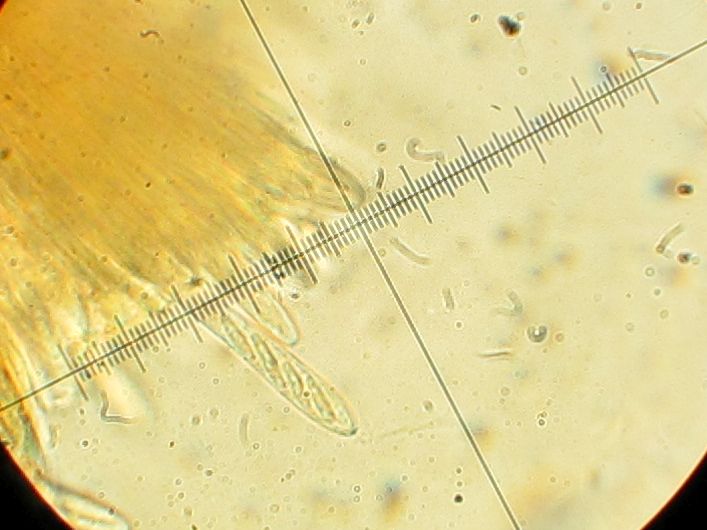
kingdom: Fungi
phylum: Ascomycota
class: Leotiomycetes
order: Helotiales
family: Ploettnerulaceae
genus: Pyrenopeziza
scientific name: Pyrenopeziza petiolaris
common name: ahorn-kerneskive
